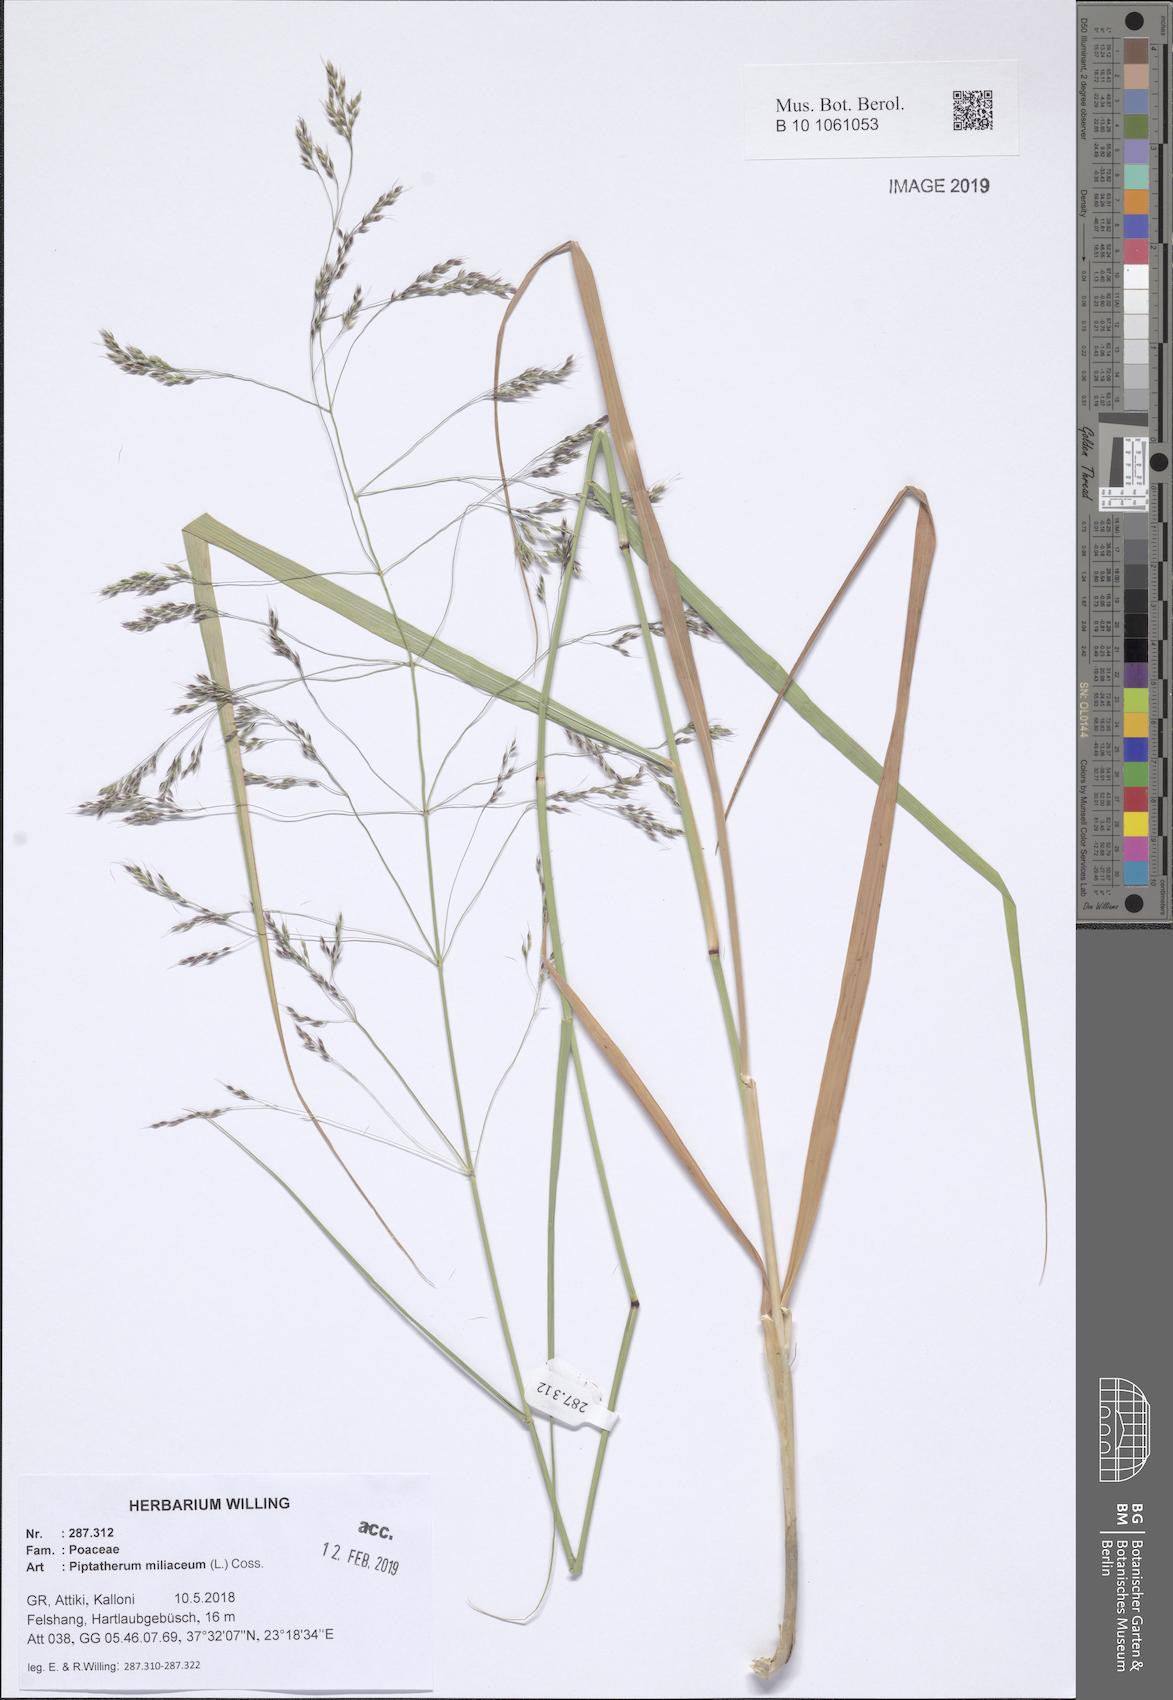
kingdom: Plantae
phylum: Tracheophyta
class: Liliopsida
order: Poales
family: Poaceae
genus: Oloptum
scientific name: Oloptum miliaceum
